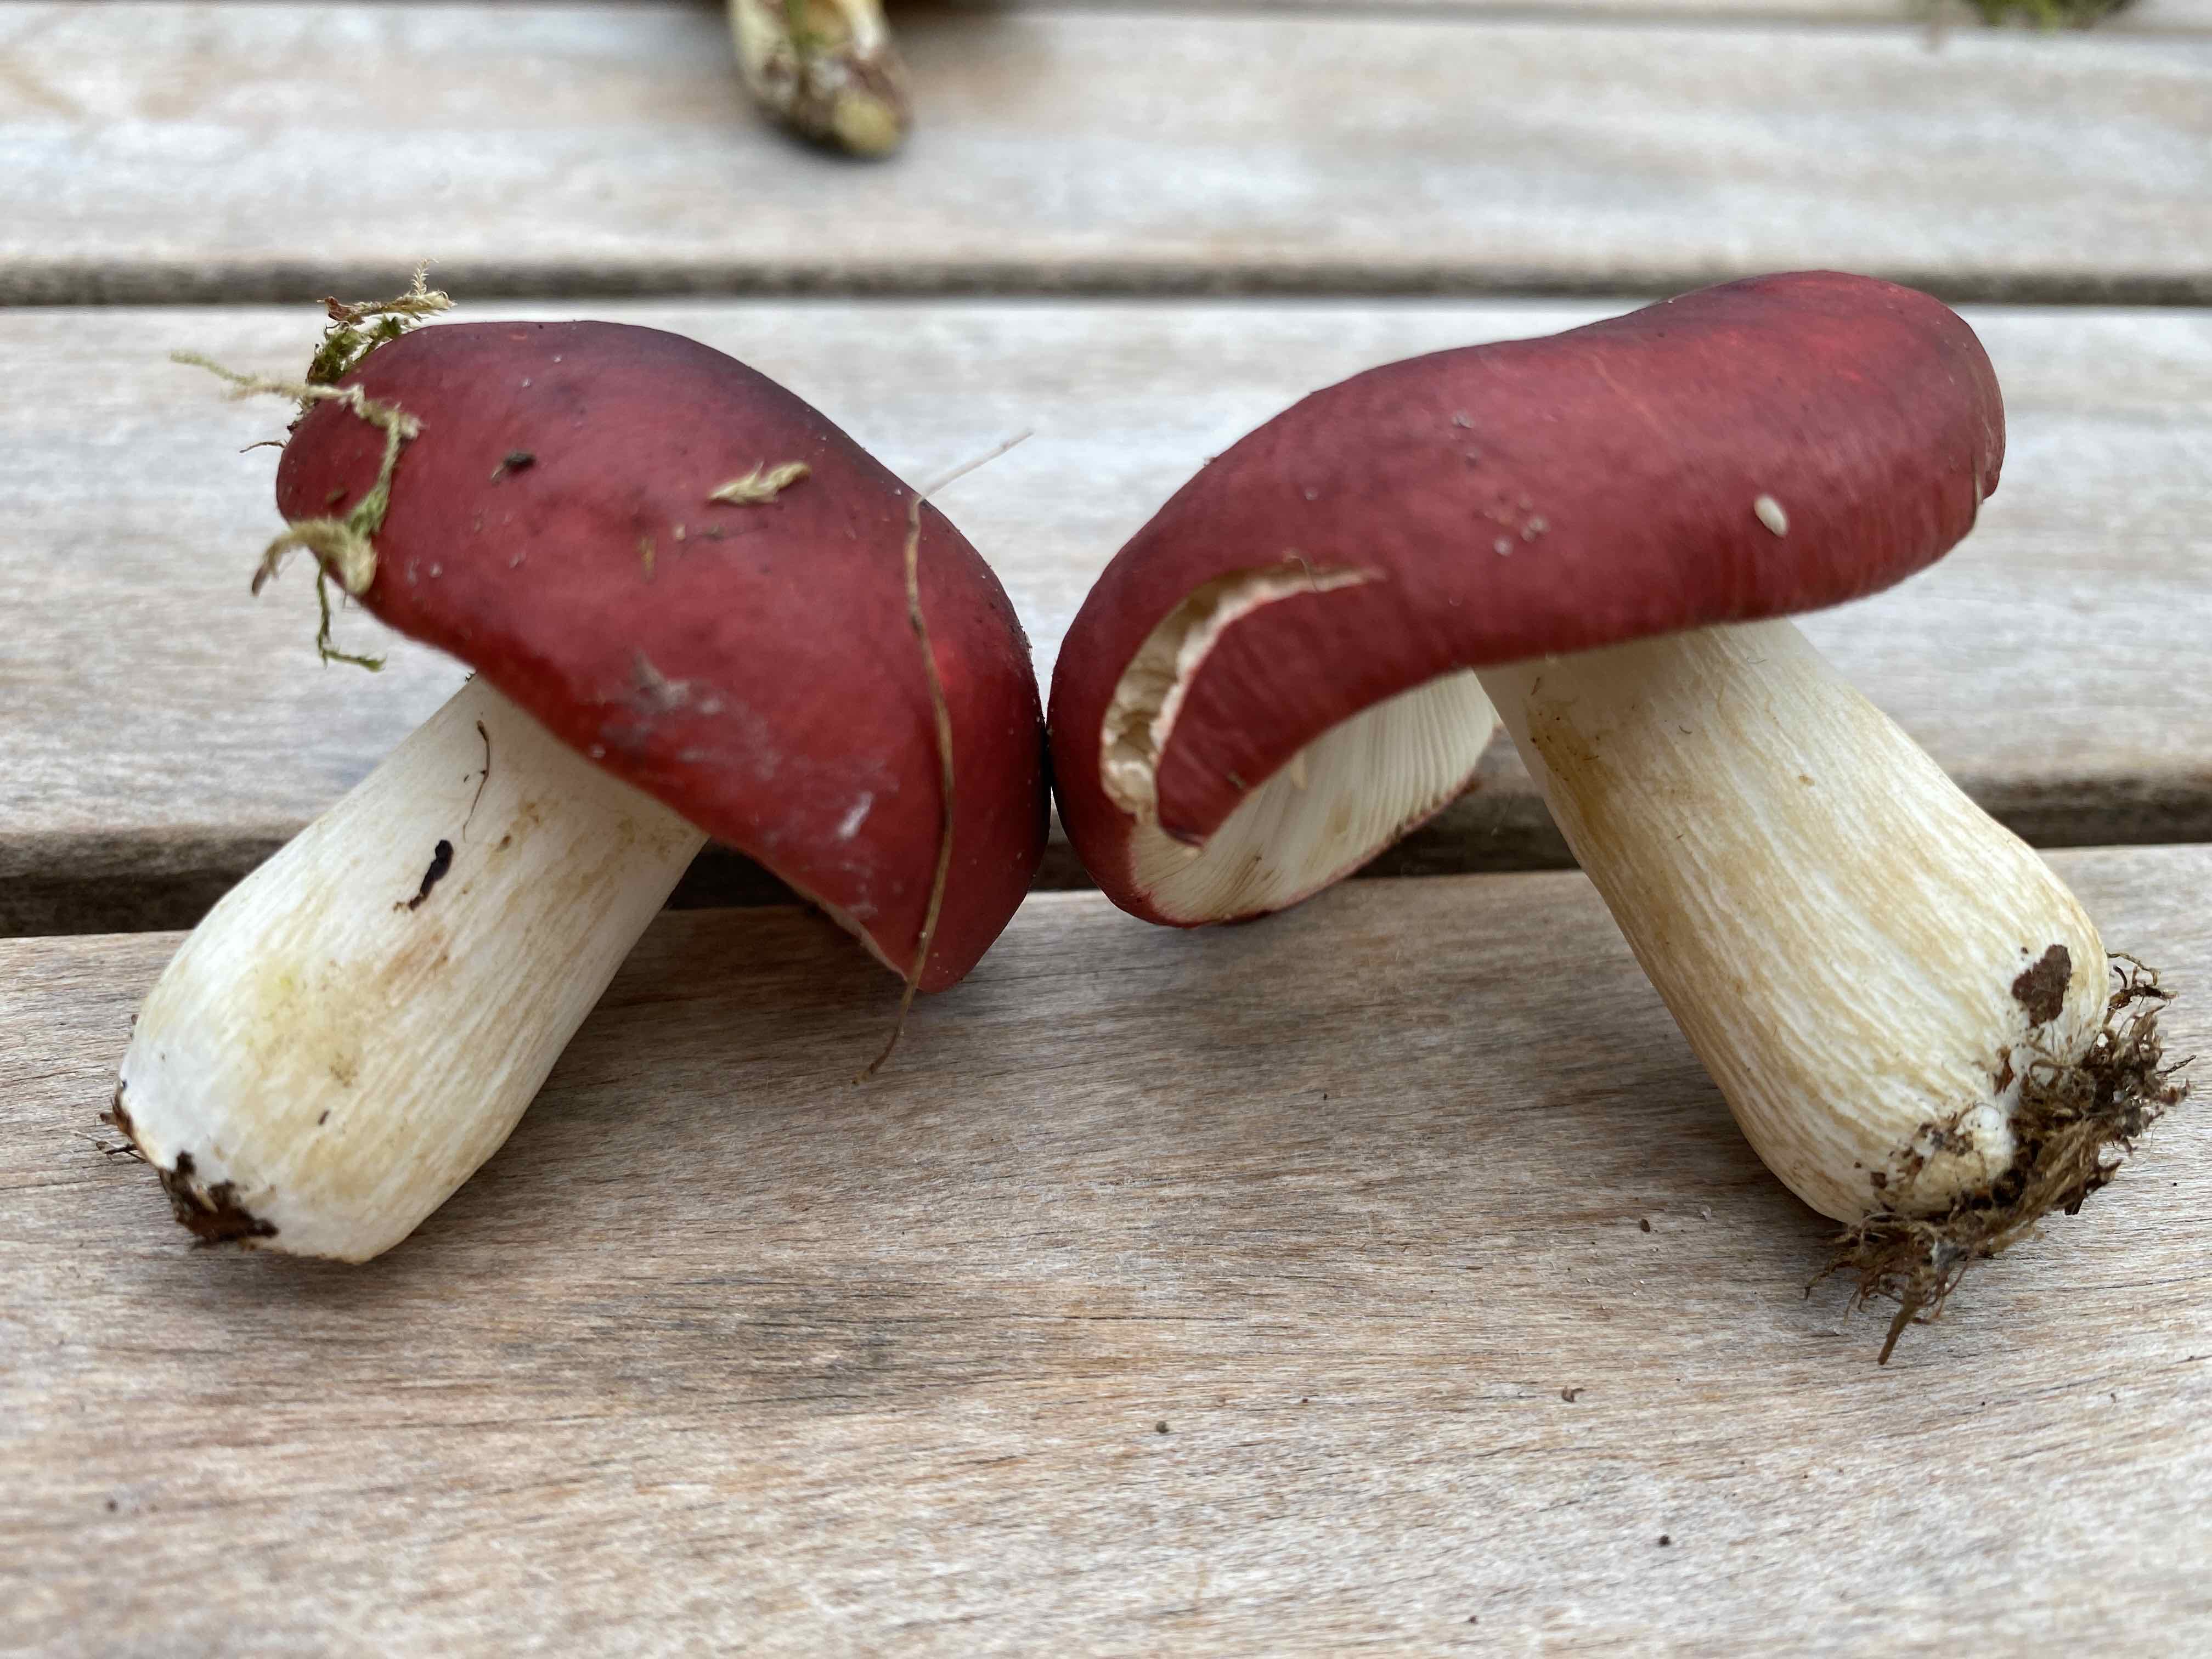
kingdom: Fungi
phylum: Basidiomycota
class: Agaricomycetes
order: Russulales
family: Russulaceae
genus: Russula
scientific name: Russula xerampelina
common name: hummer-skørhat
